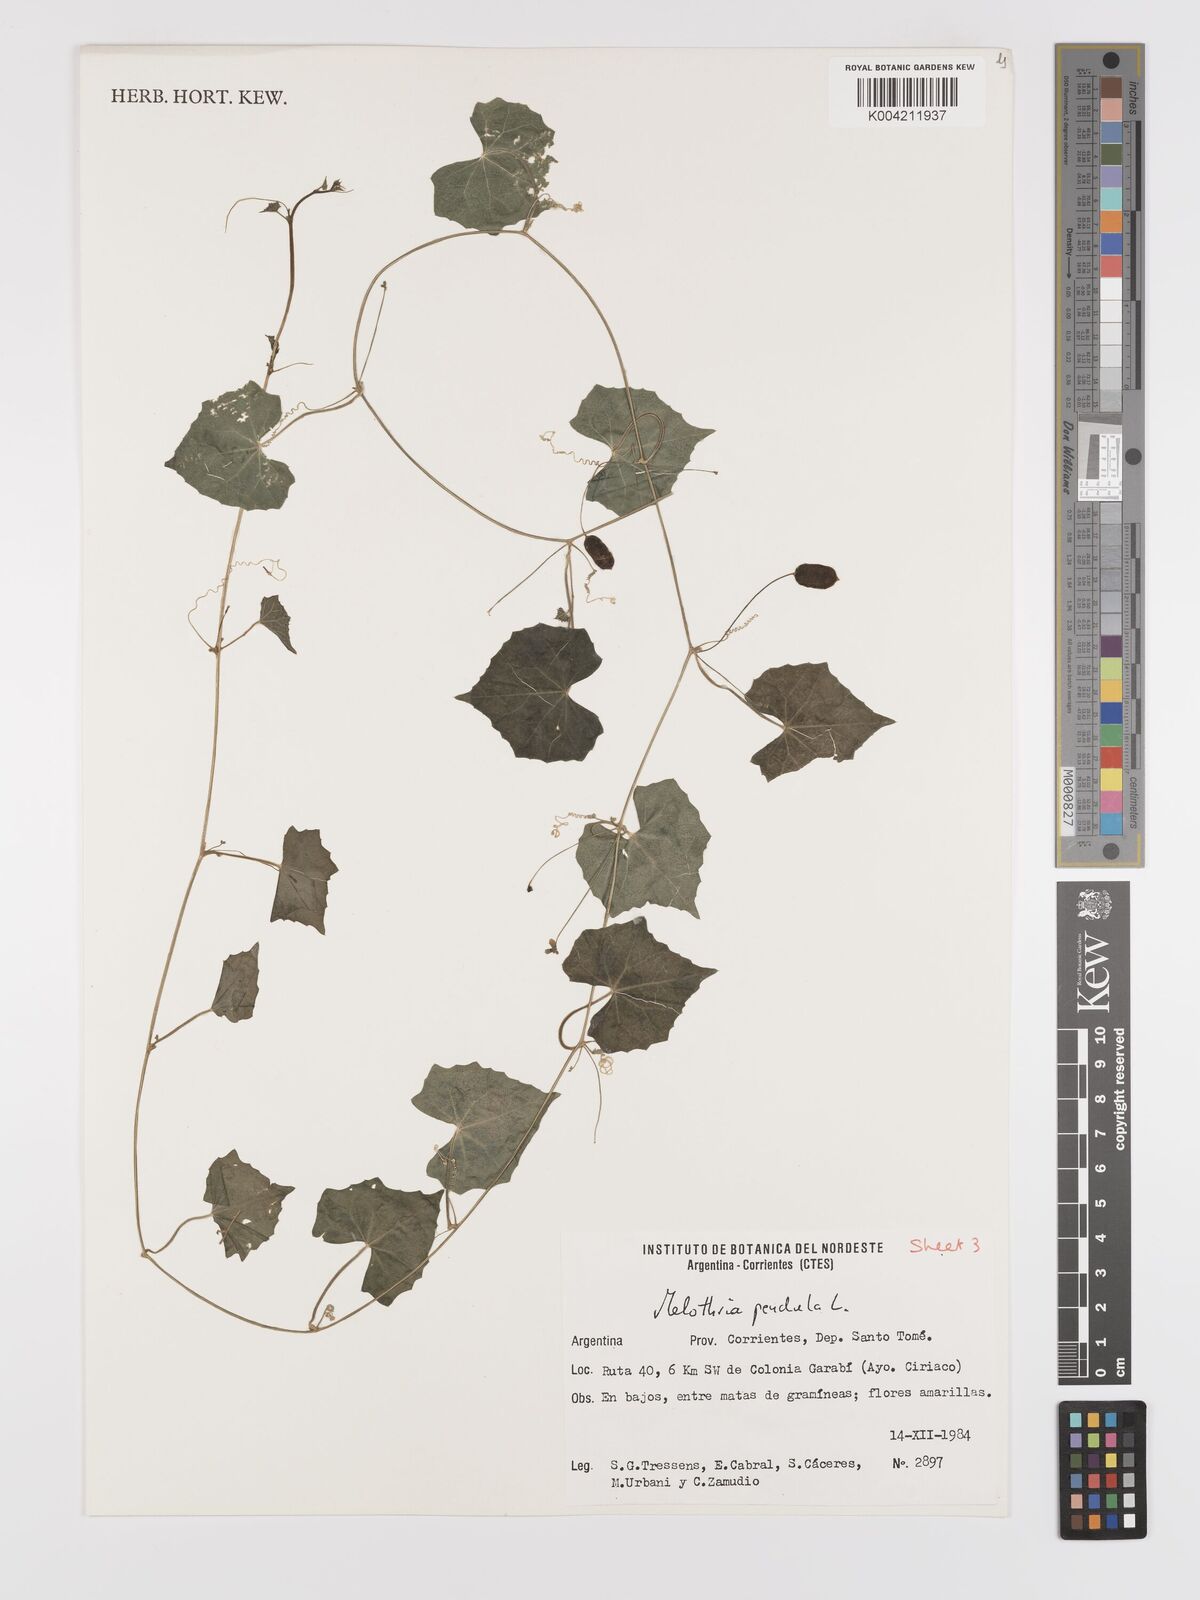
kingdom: Plantae
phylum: Tracheophyta
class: Magnoliopsida
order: Cucurbitales
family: Cucurbitaceae
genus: Melothria
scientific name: Melothria pendula
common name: Creeping-cucumber
